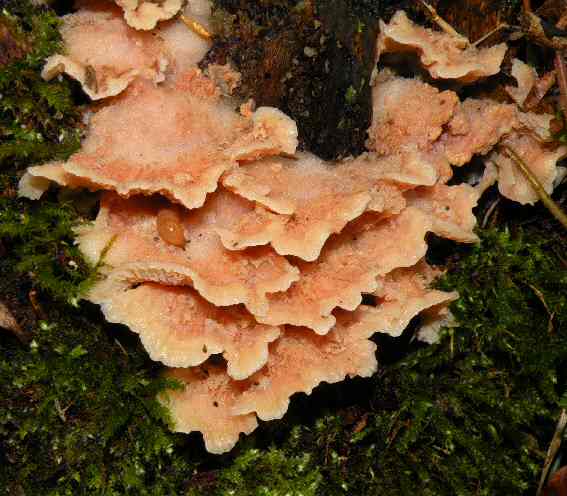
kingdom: Fungi
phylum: Basidiomycota
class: Agaricomycetes
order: Polyporales
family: Meruliaceae
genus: Phlebia
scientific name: Phlebia tremellosa
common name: bævrende åresvamp
